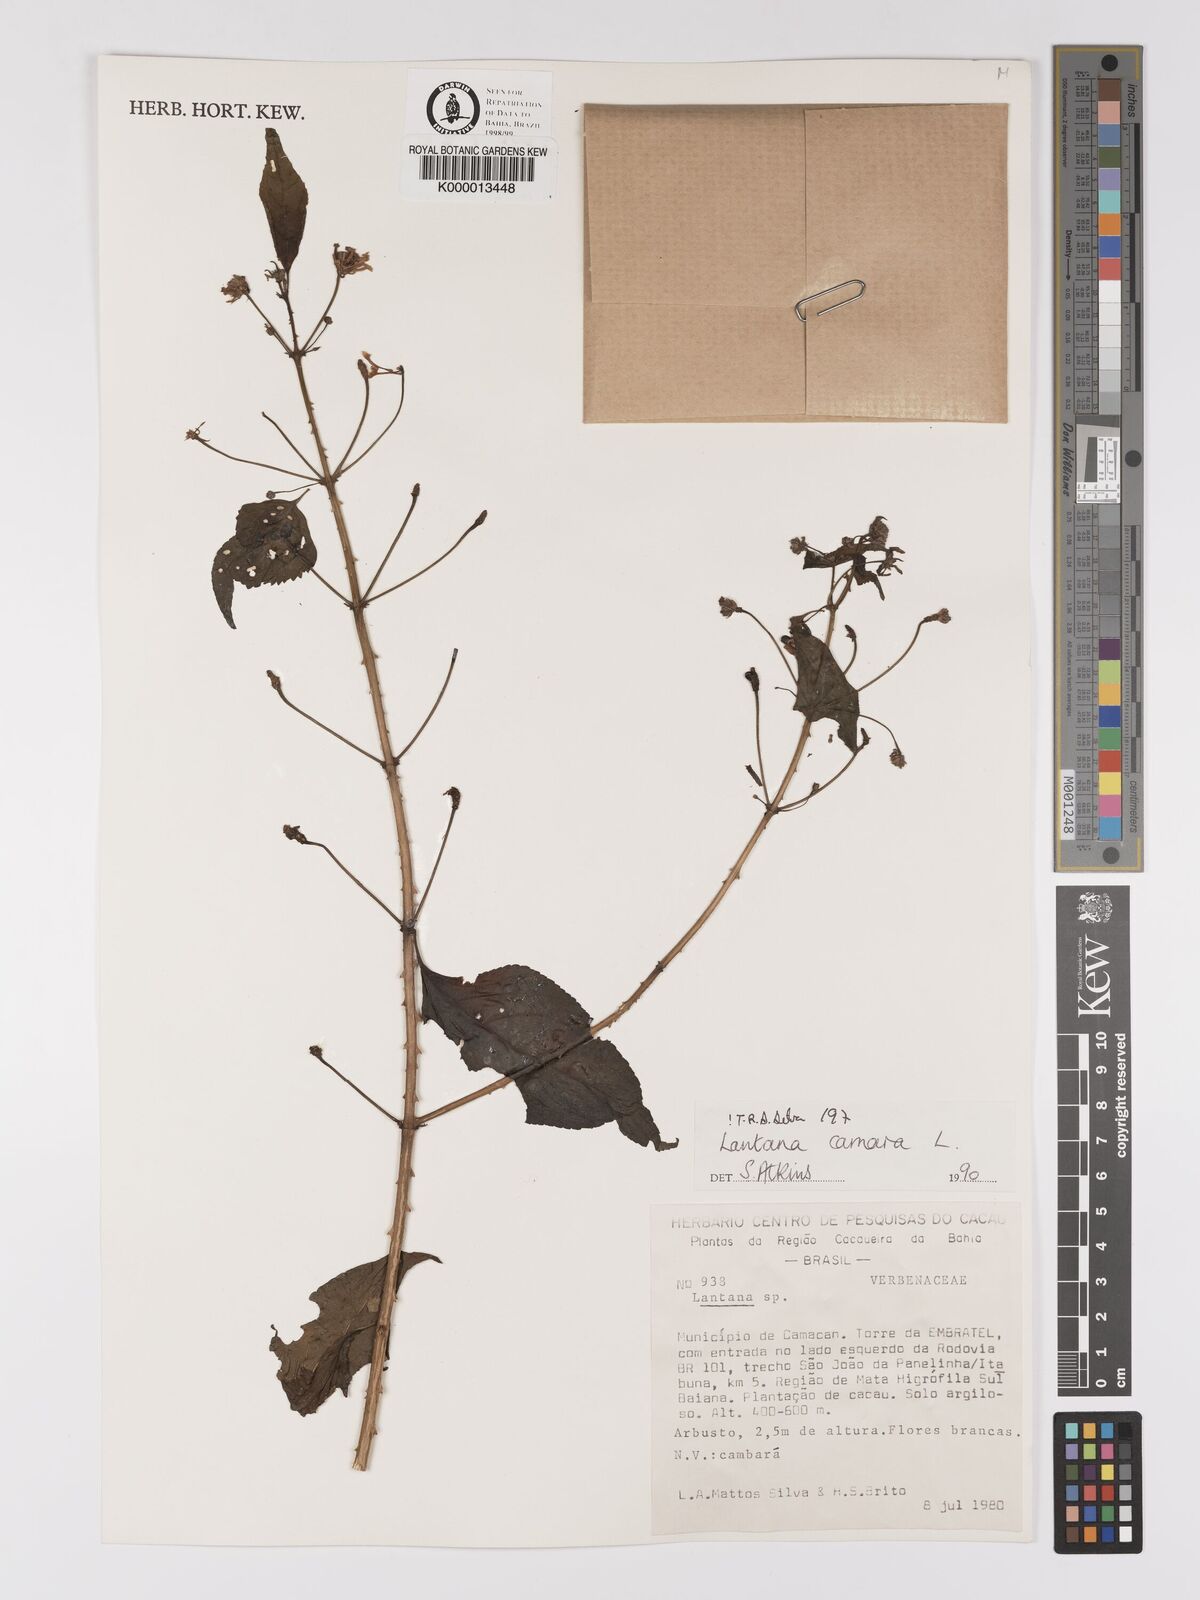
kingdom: Plantae
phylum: Tracheophyta
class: Magnoliopsida
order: Lamiales
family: Verbenaceae
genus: Lantana
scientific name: Lantana camara
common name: Lantana
